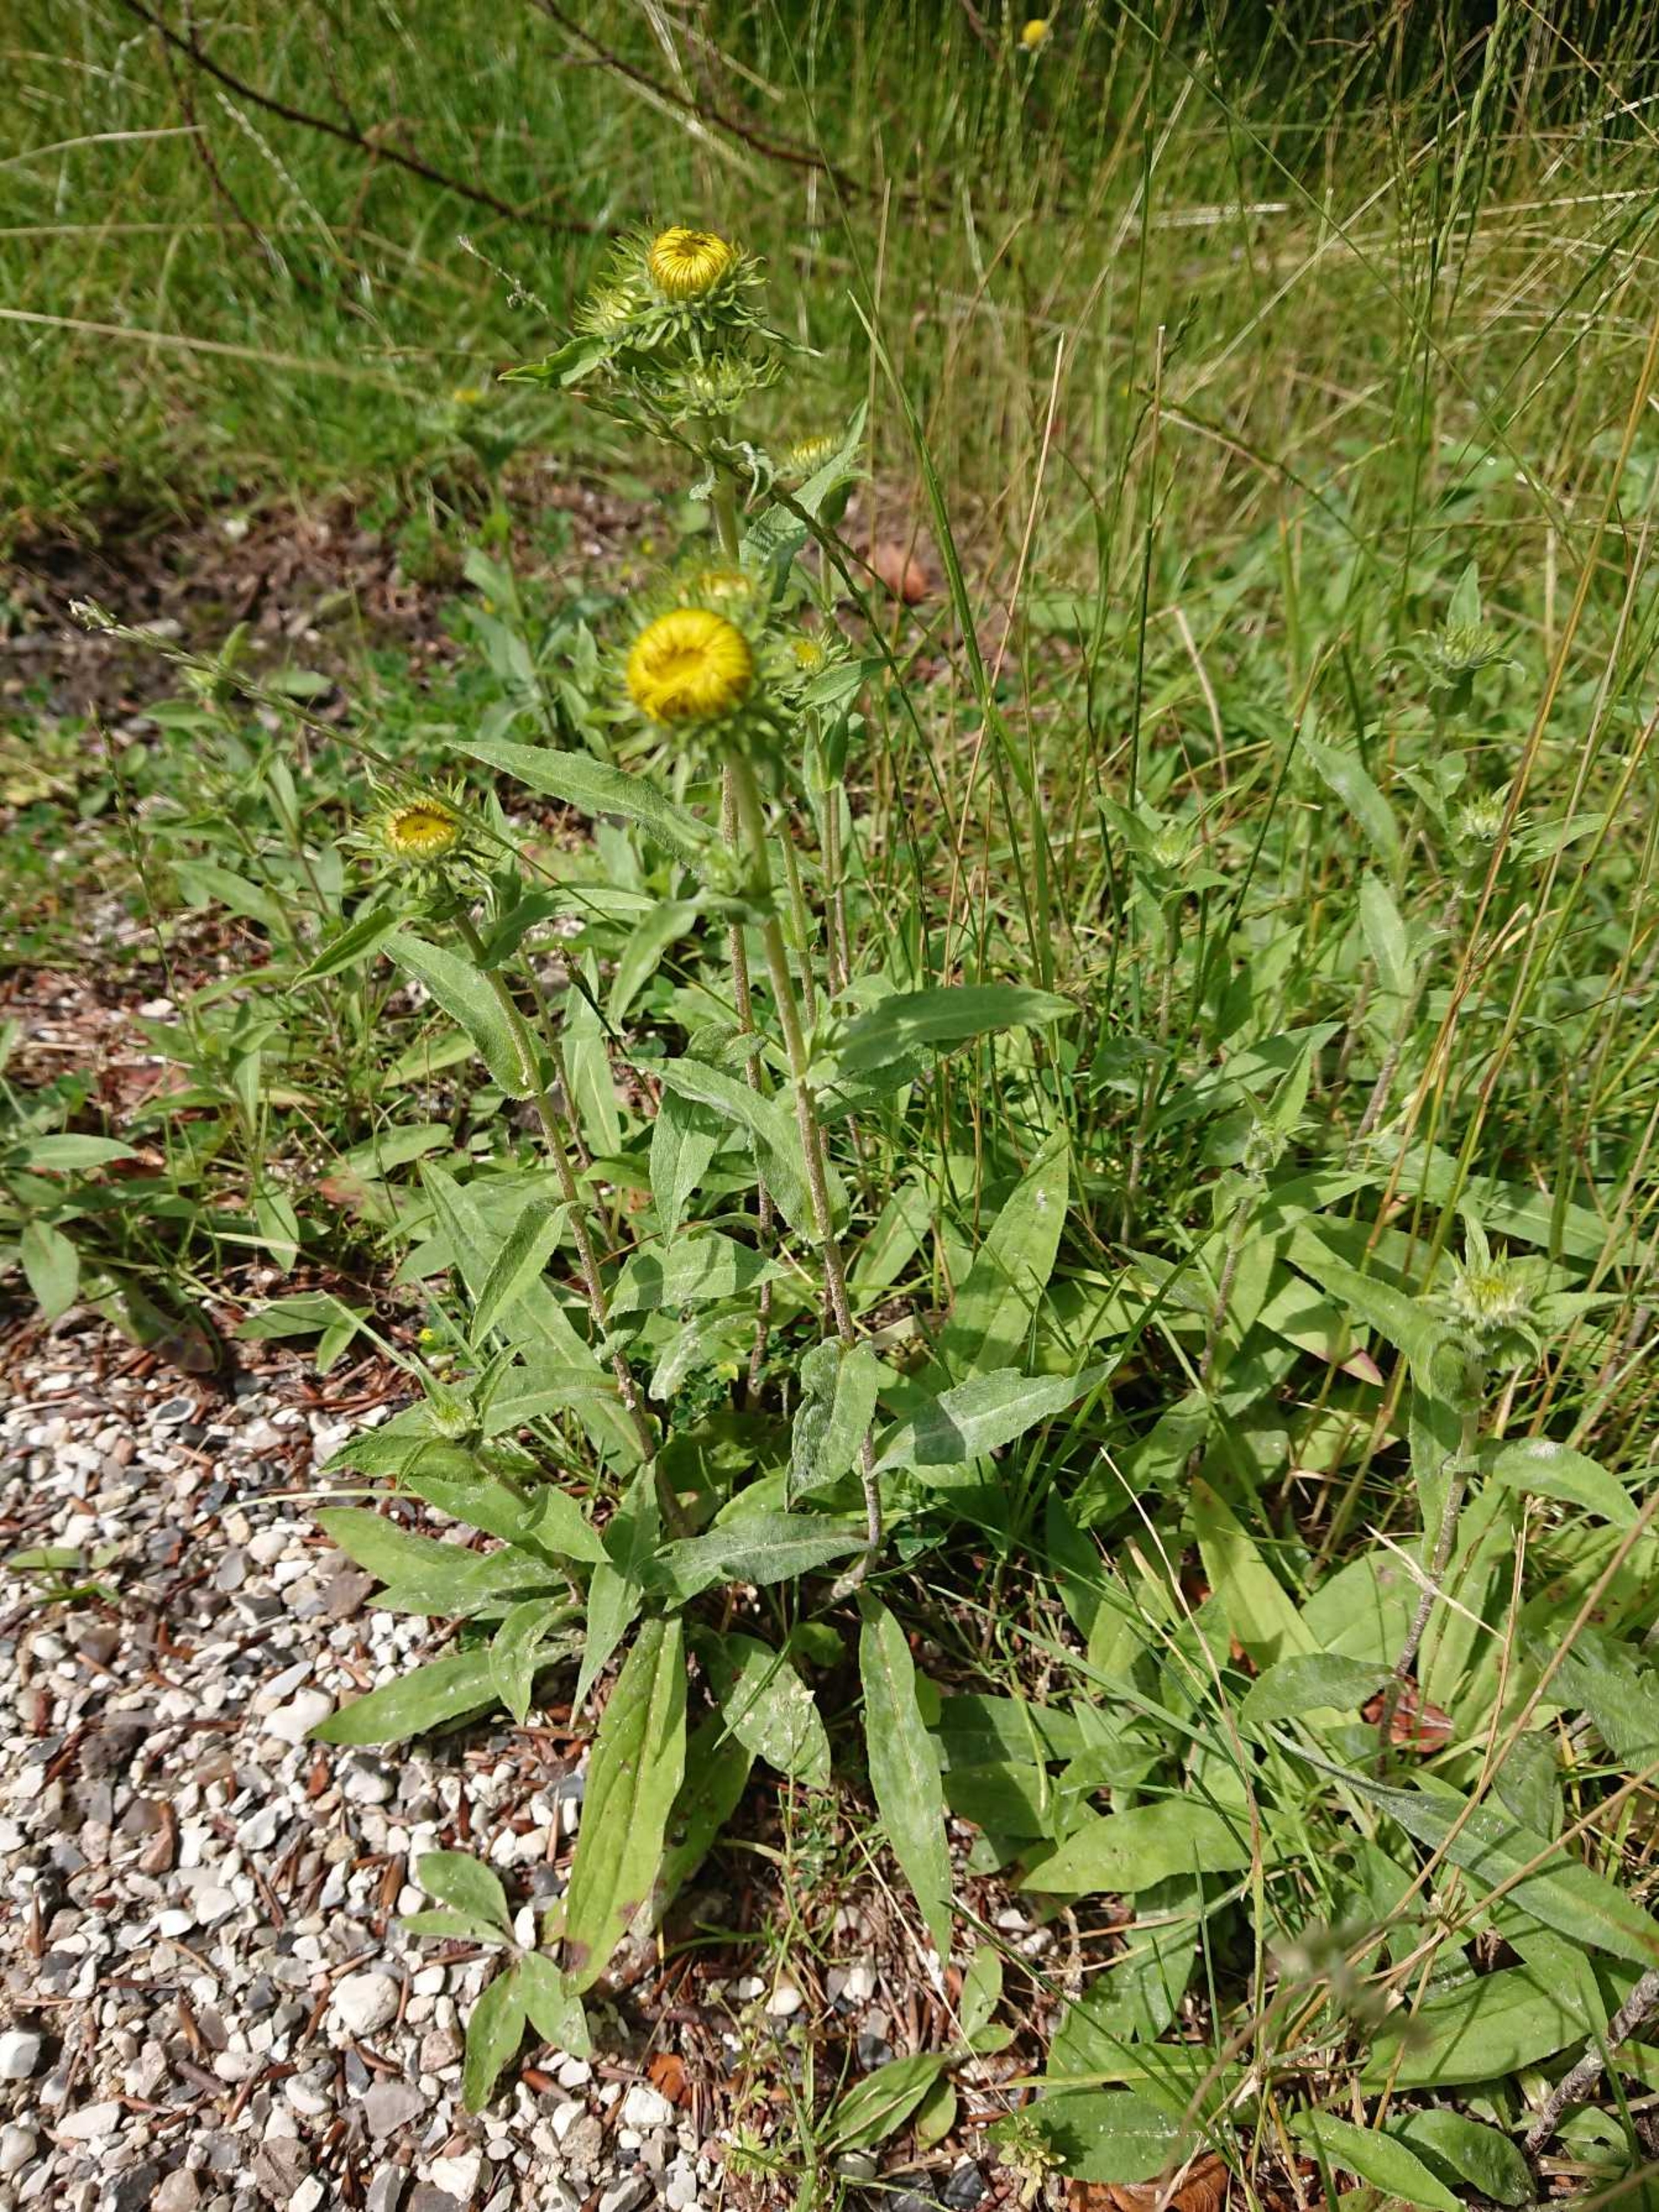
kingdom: Plantae
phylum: Tracheophyta
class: Magnoliopsida
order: Asterales
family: Asteraceae
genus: Pentanema
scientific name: Pentanema salicinum
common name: Pile-alant
